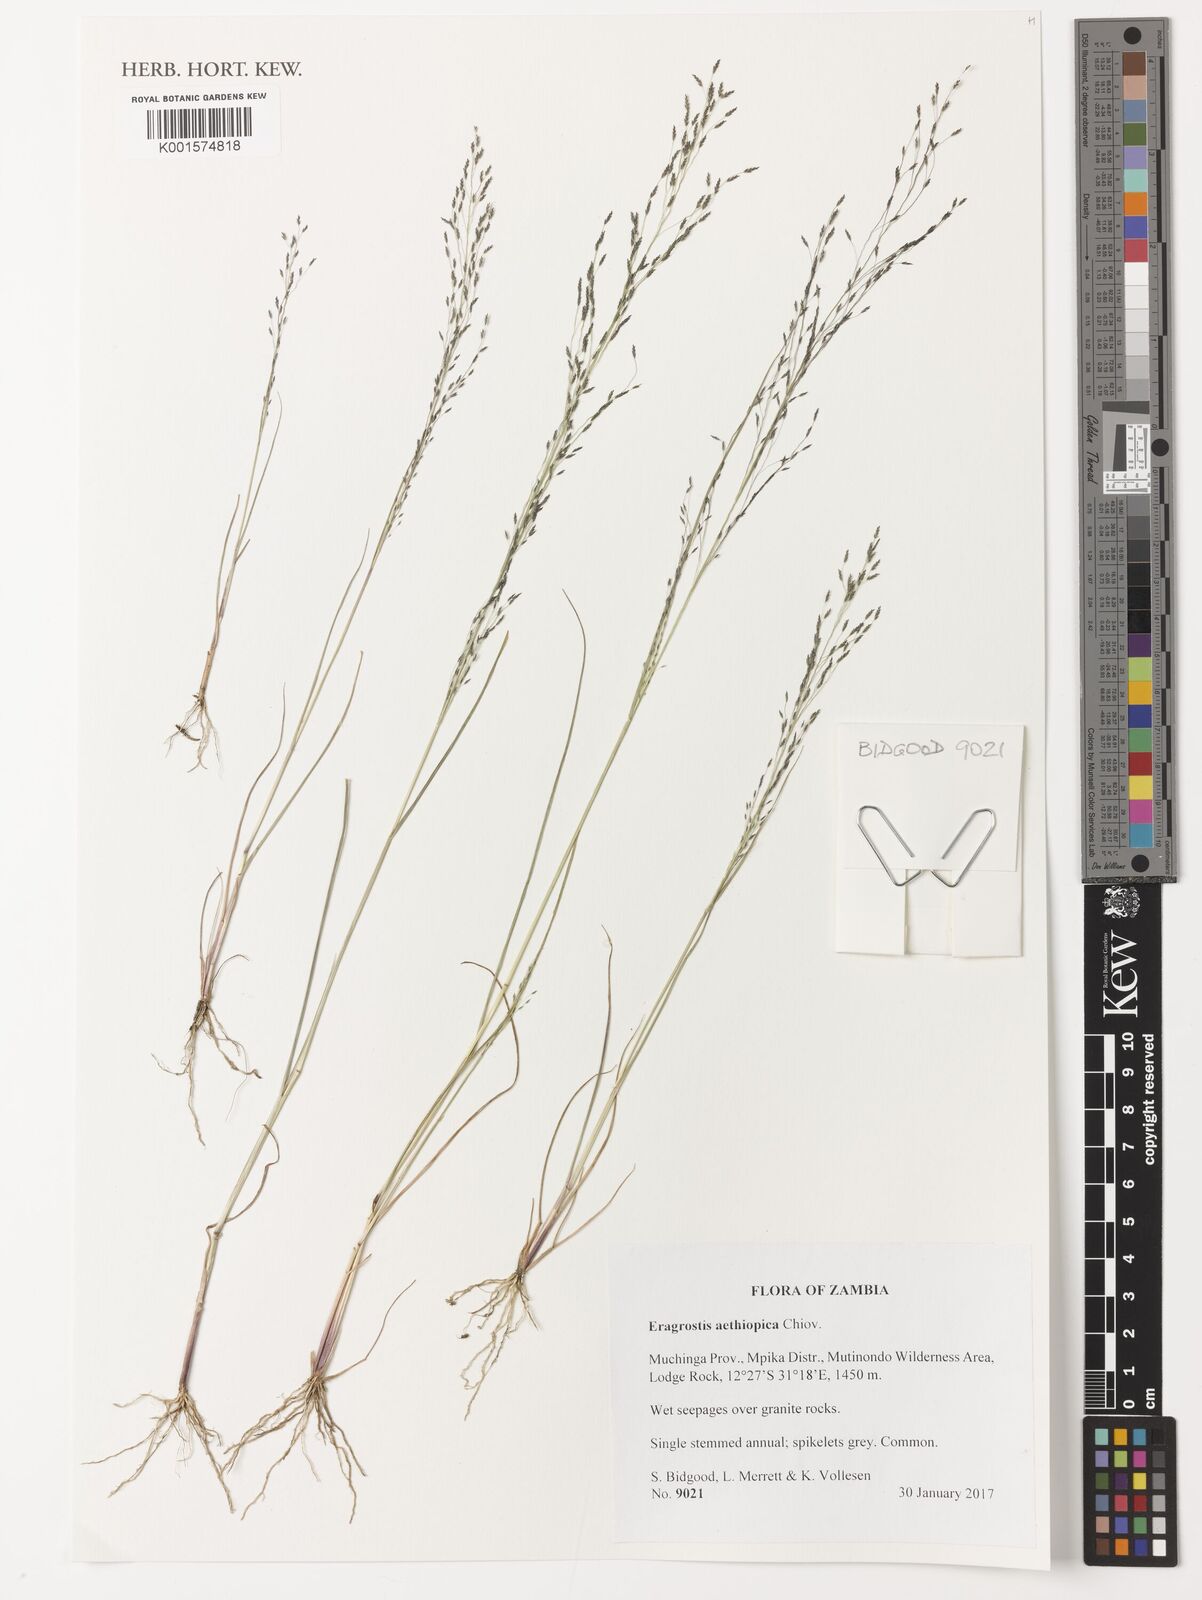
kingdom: Plantae
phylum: Tracheophyta
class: Liliopsida
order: Poales
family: Poaceae
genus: Eragrostis
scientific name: Eragrostis aethiopica
